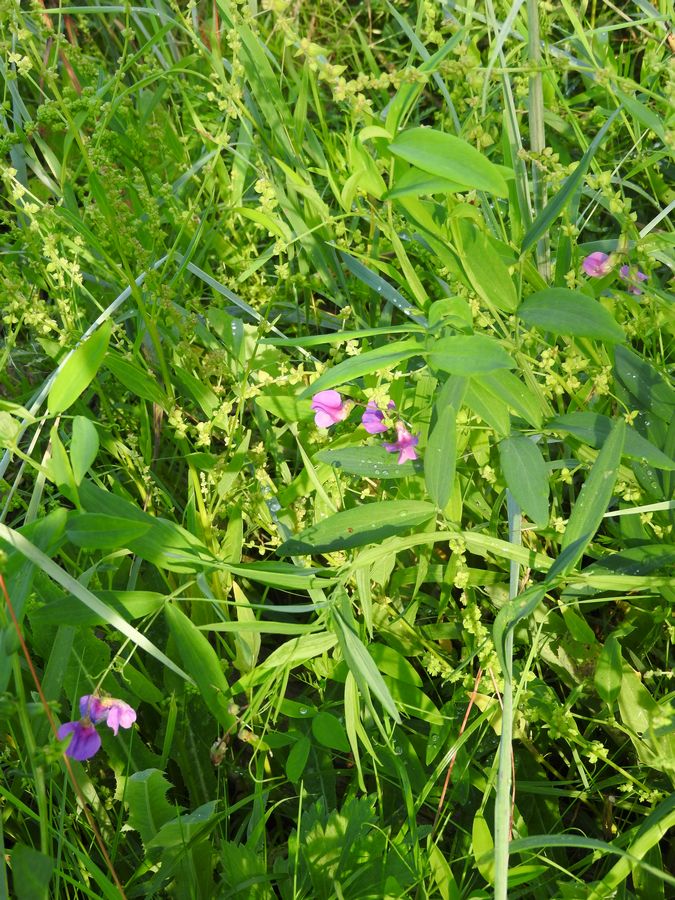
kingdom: Plantae
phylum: Tracheophyta
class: Magnoliopsida
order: Fabales
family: Fabaceae
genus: Lathyrus
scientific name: Lathyrus palustris
